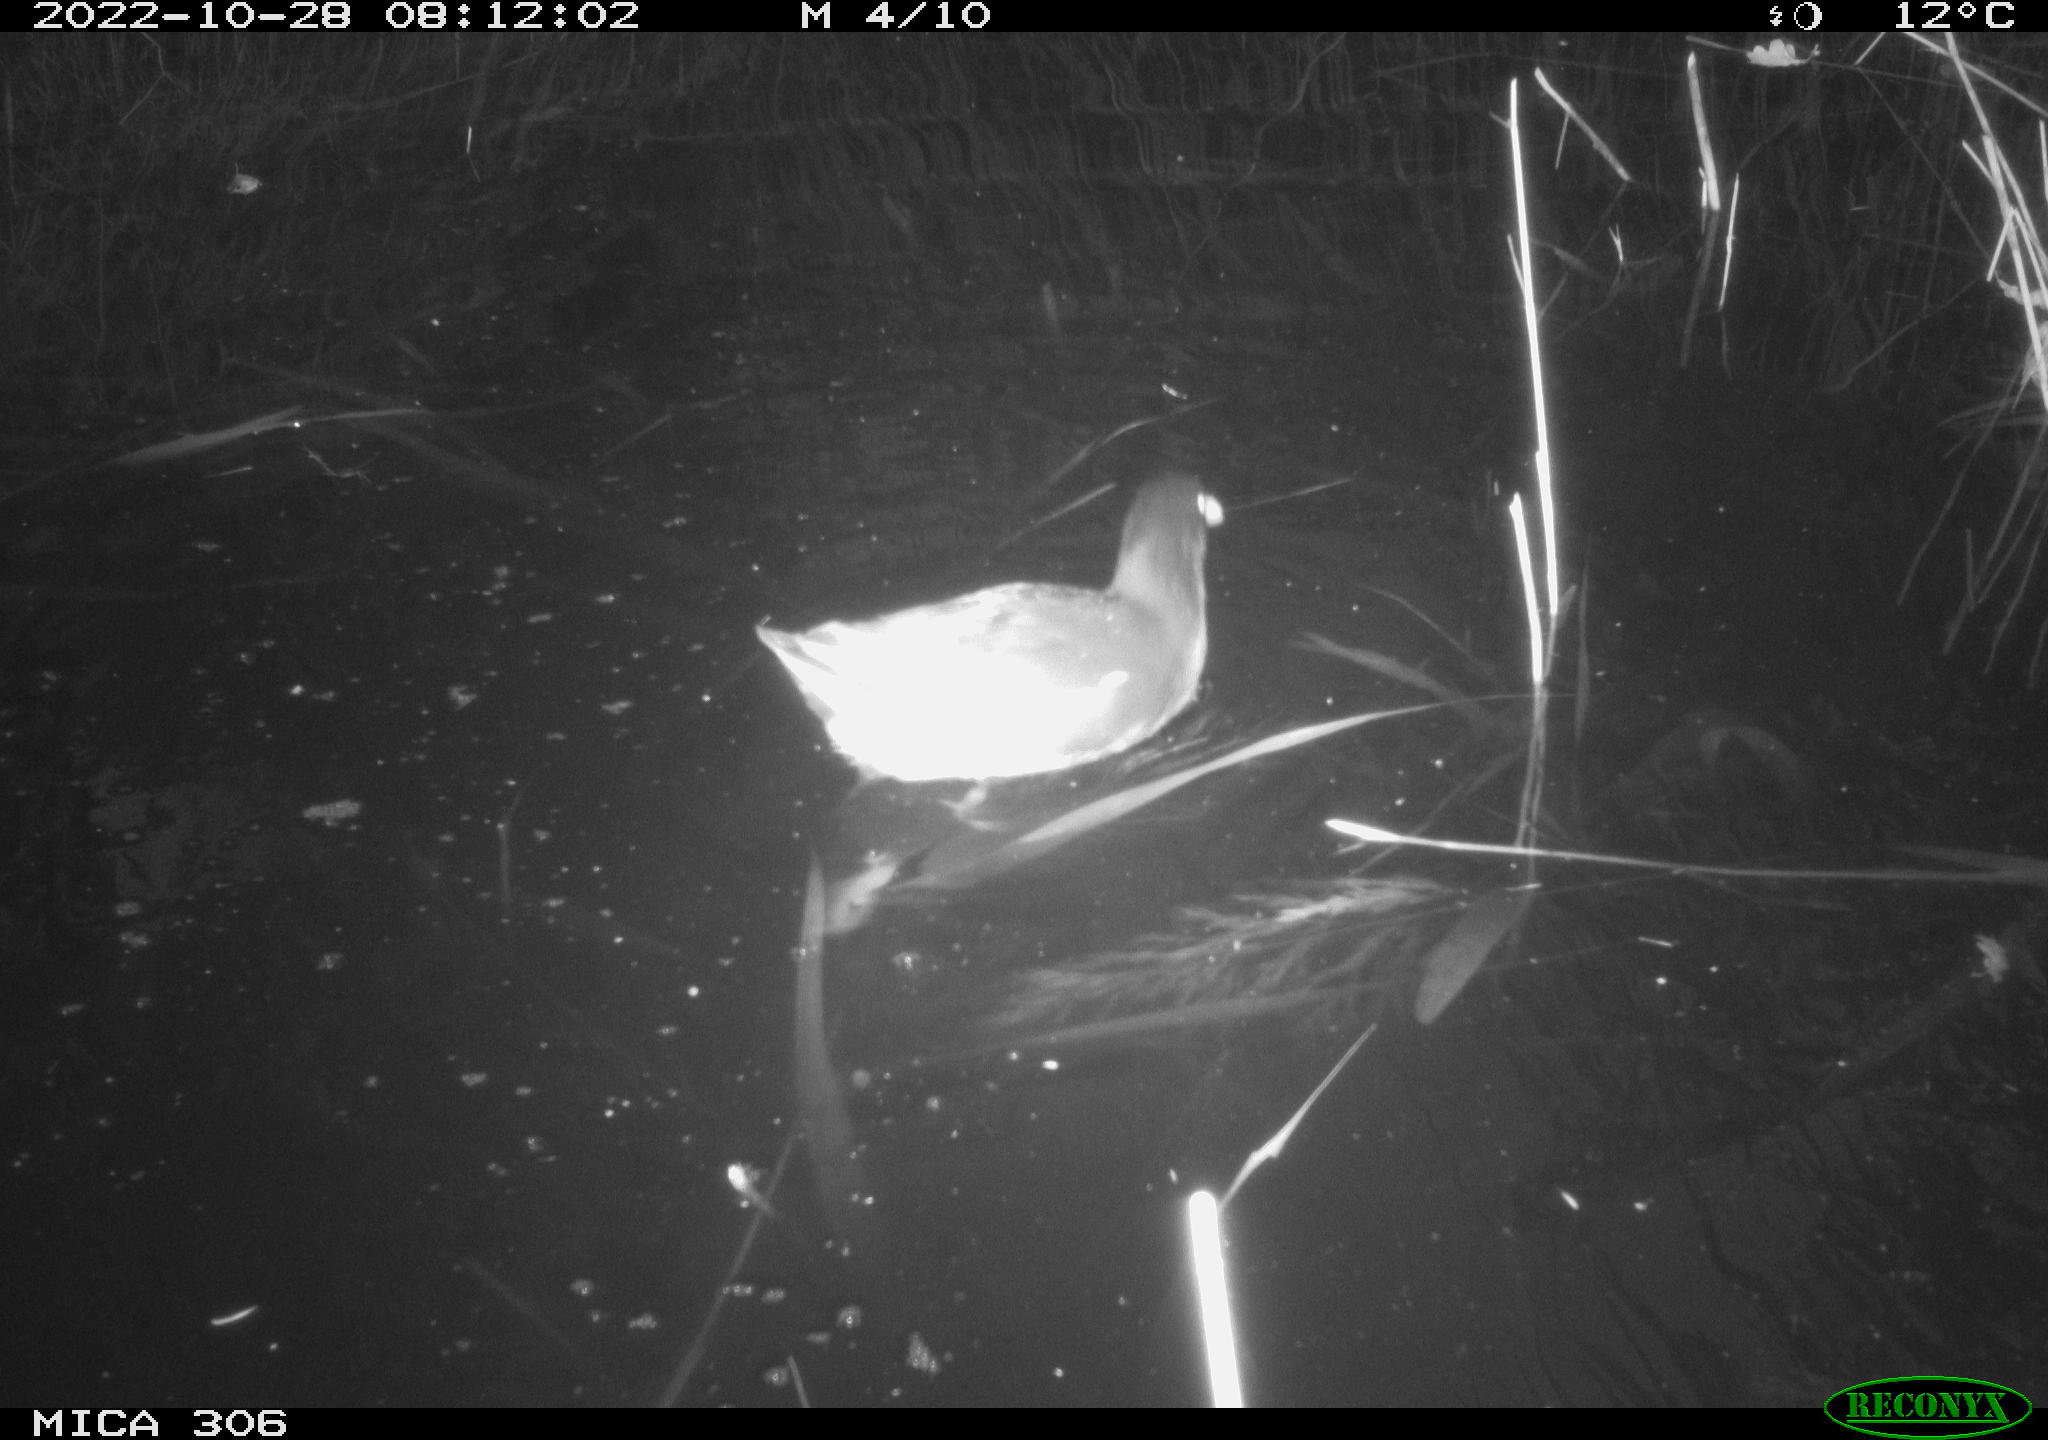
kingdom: Animalia
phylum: Chordata
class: Aves
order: Gruiformes
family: Rallidae
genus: Gallinula
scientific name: Gallinula chloropus
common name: Common moorhen
